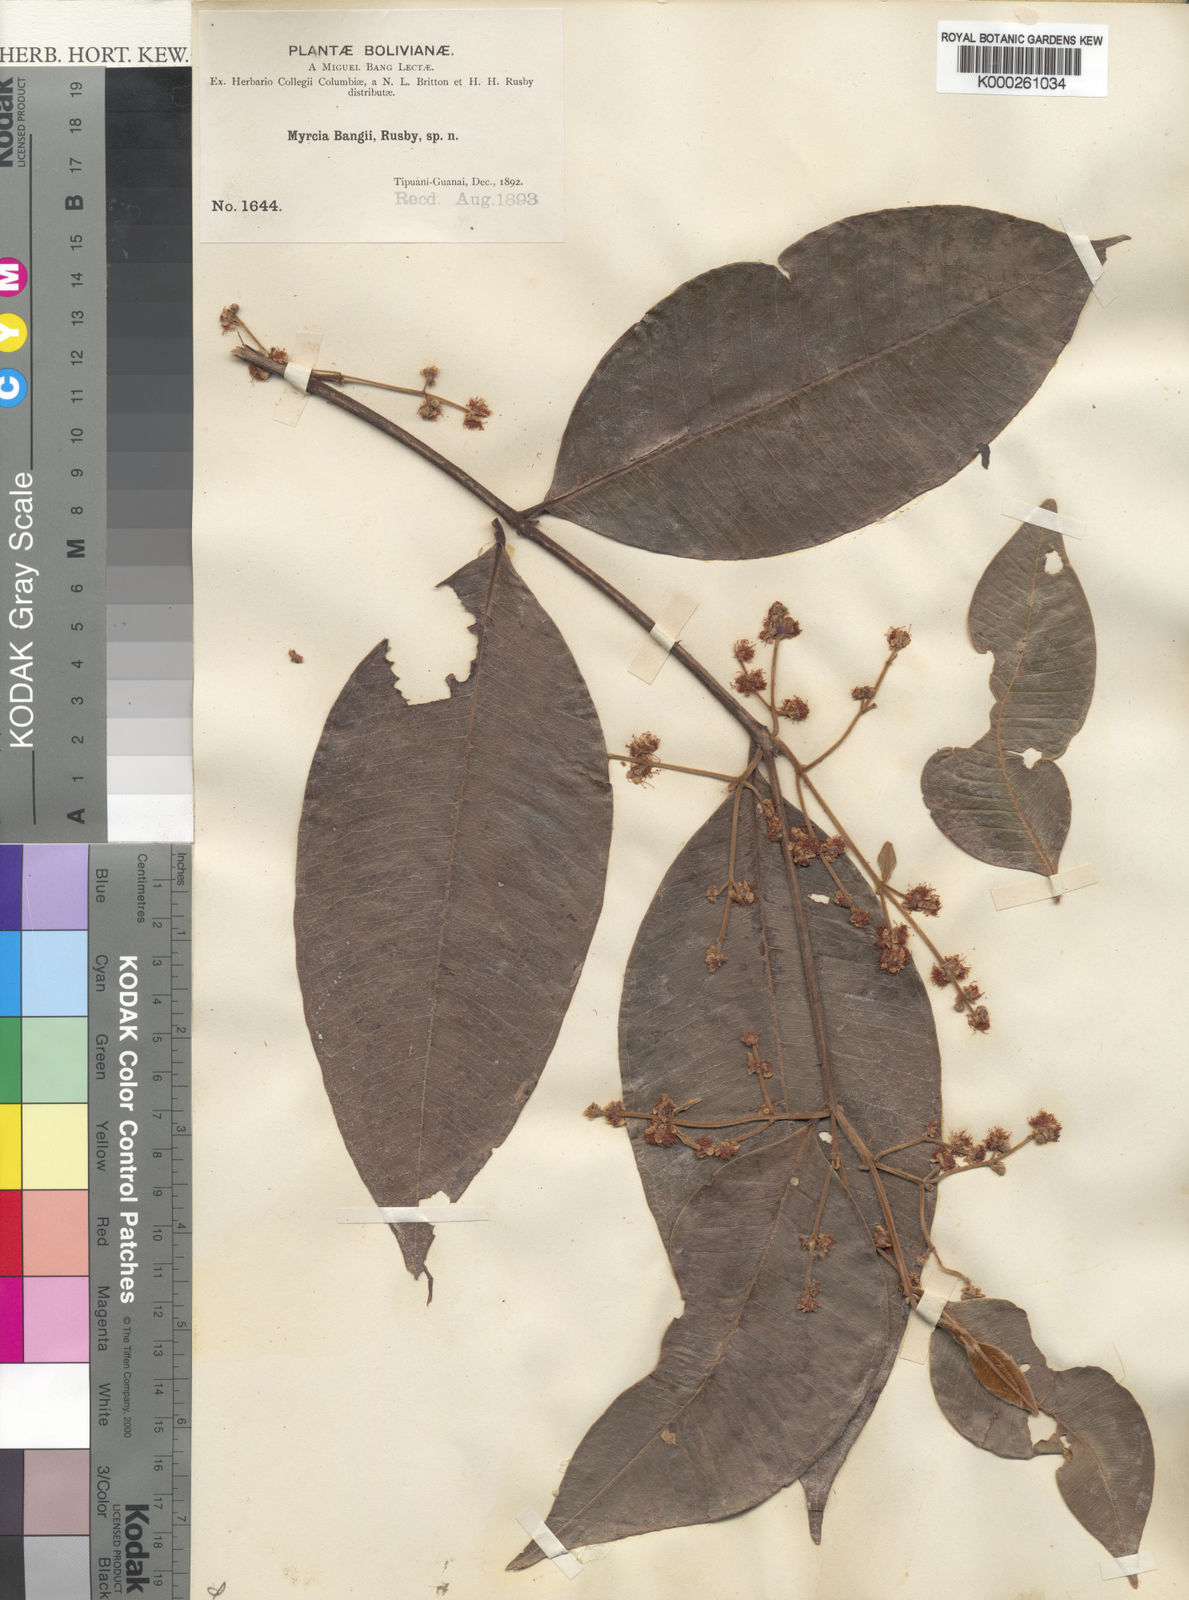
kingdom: Plantae
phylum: Tracheophyta
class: Magnoliopsida
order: Myrtales
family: Myrtaceae
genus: Myrcia
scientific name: Myrcia fascicularis
